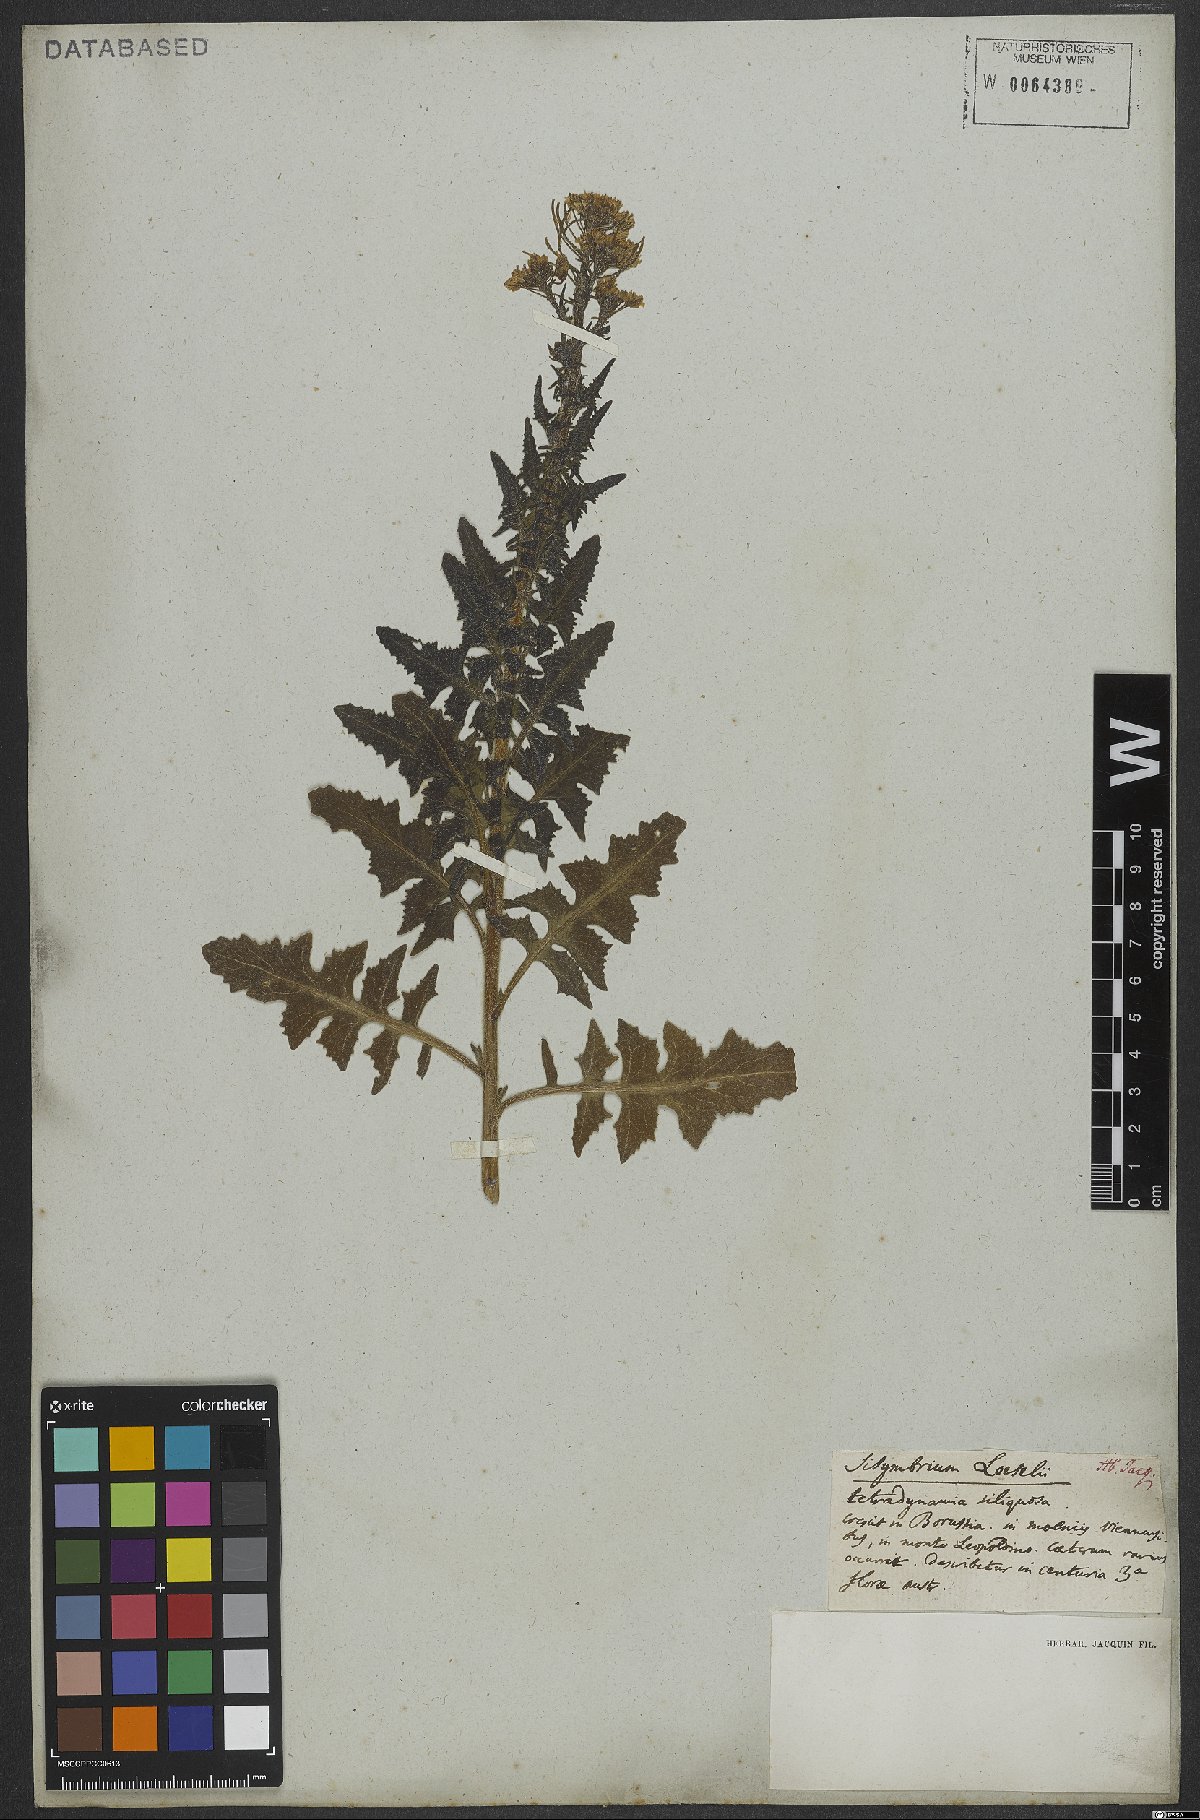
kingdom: Plantae
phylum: Tracheophyta
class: Magnoliopsida
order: Brassicales
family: Brassicaceae
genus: Sisymbrium
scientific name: Sisymbrium loeselii
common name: False london-rocket
